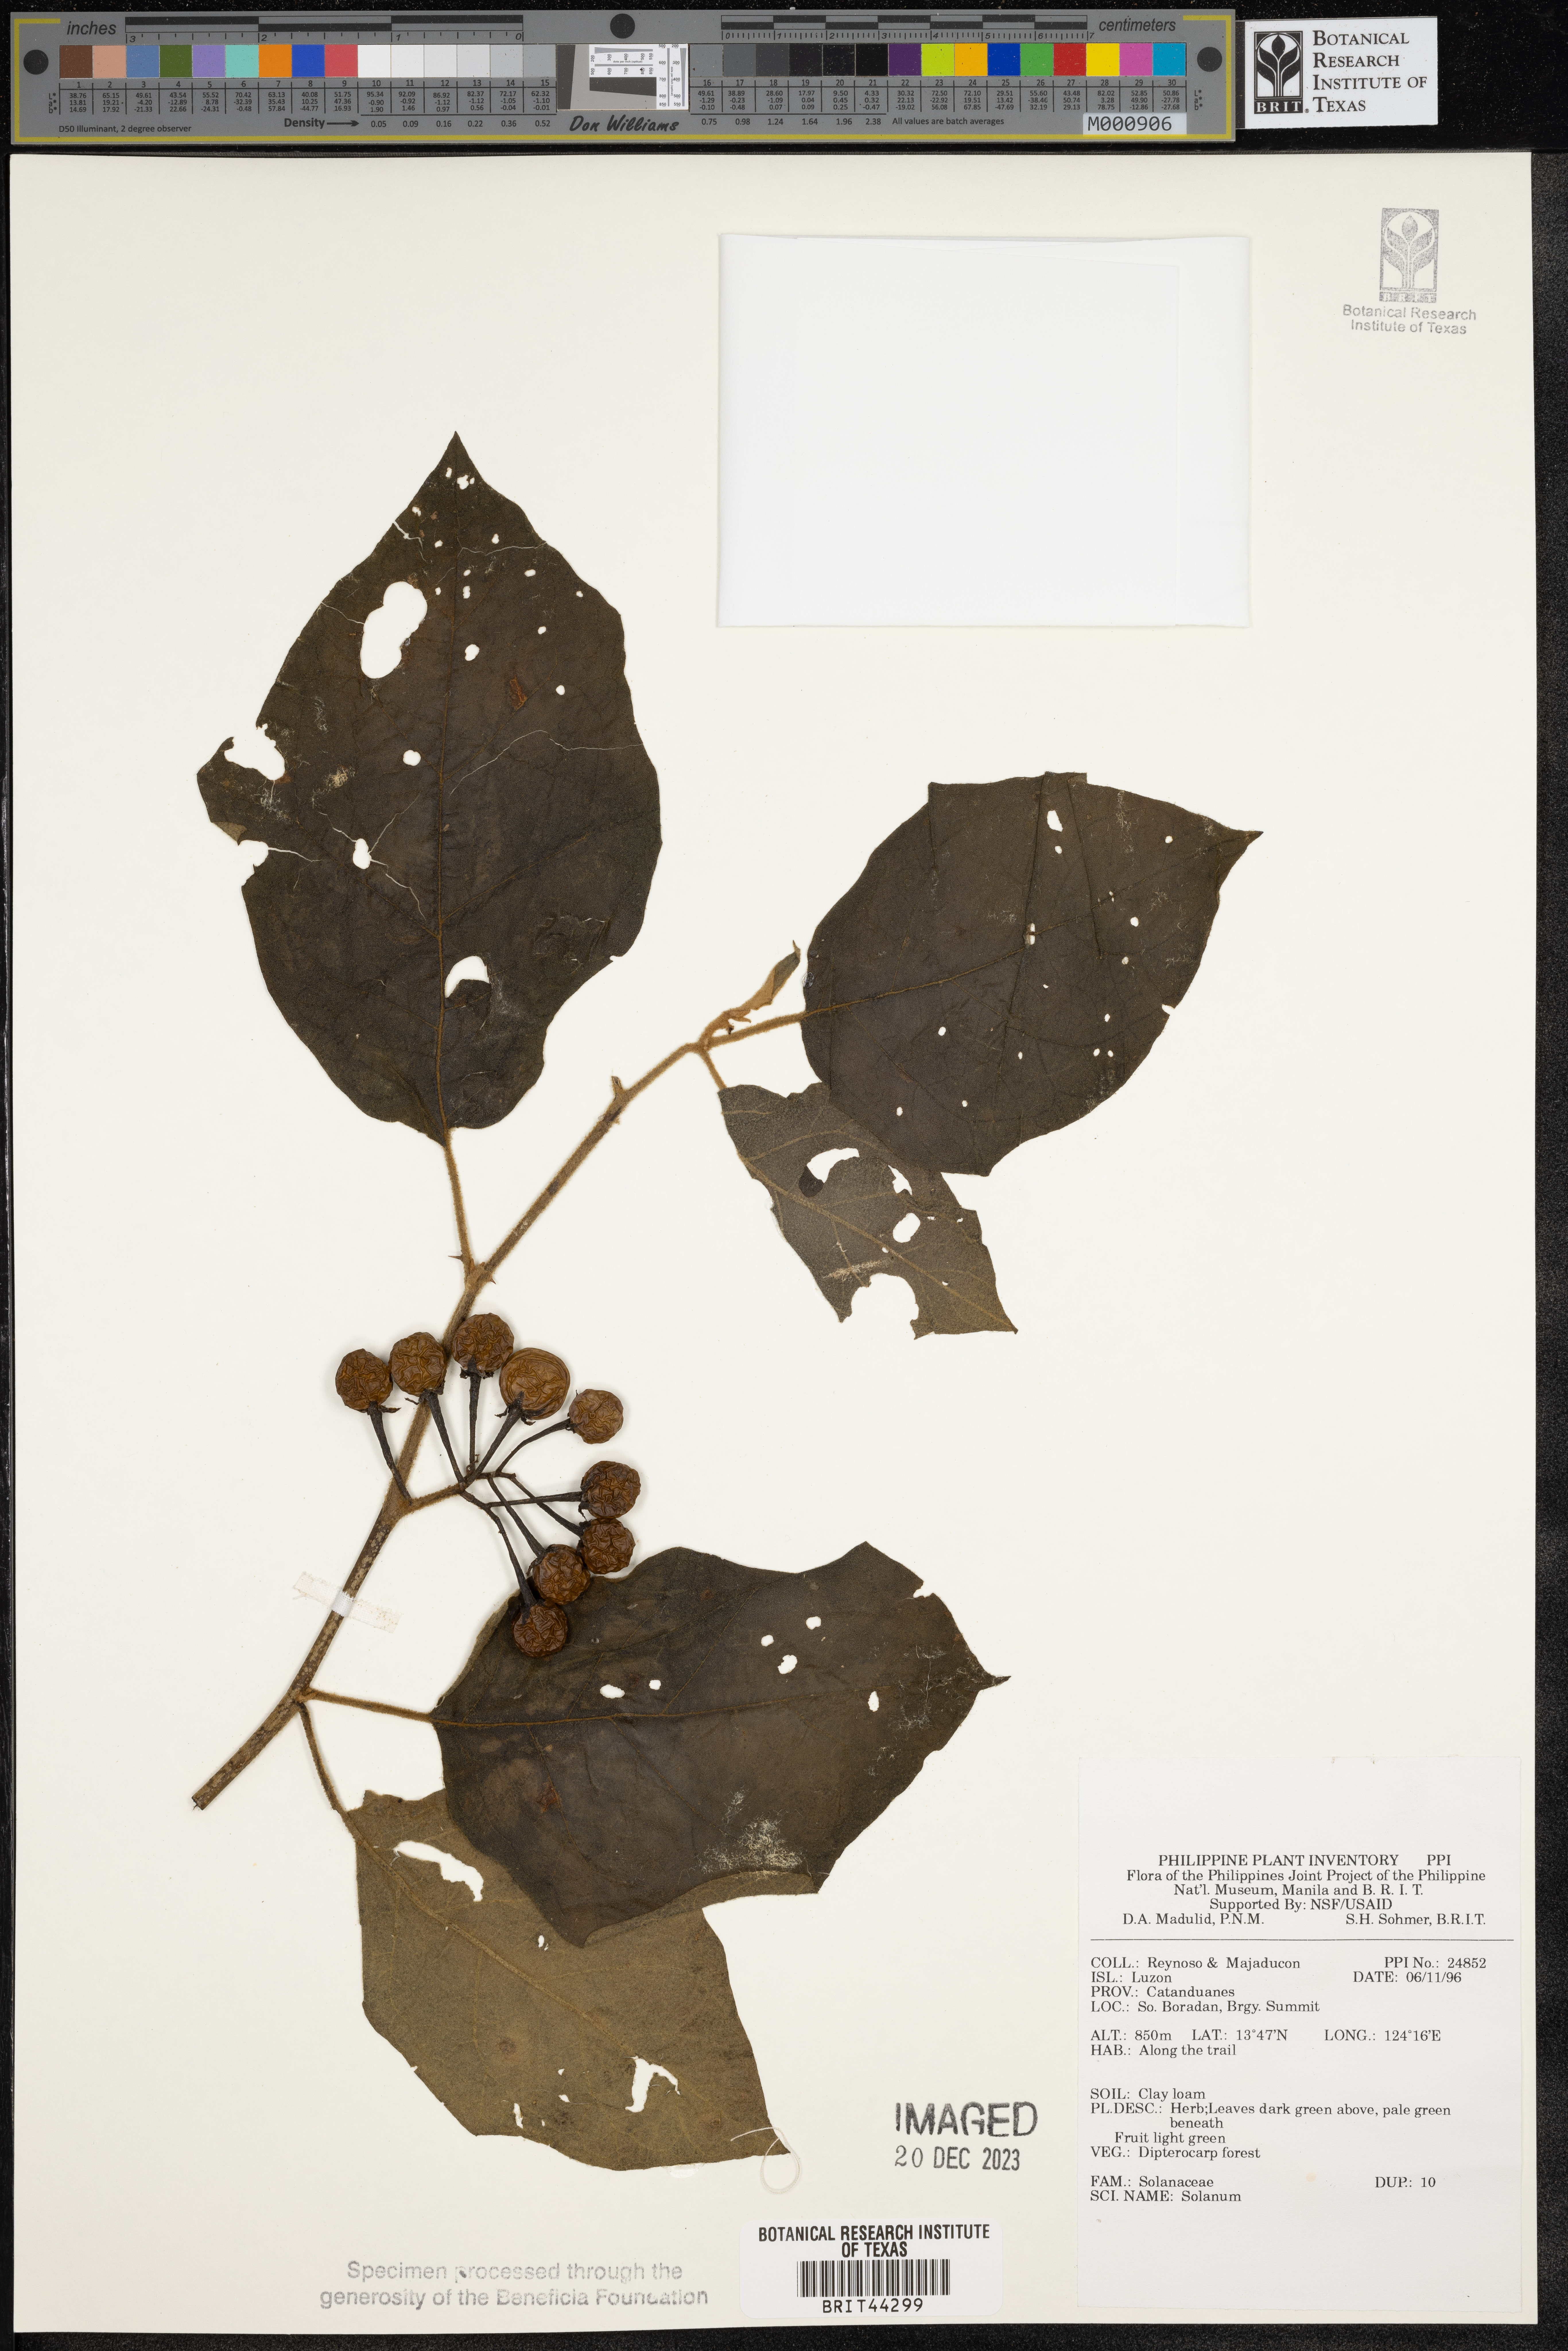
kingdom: Plantae
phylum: Tracheophyta
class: Magnoliopsida
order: Solanales
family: Solanaceae
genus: Solanum
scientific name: Solanum
